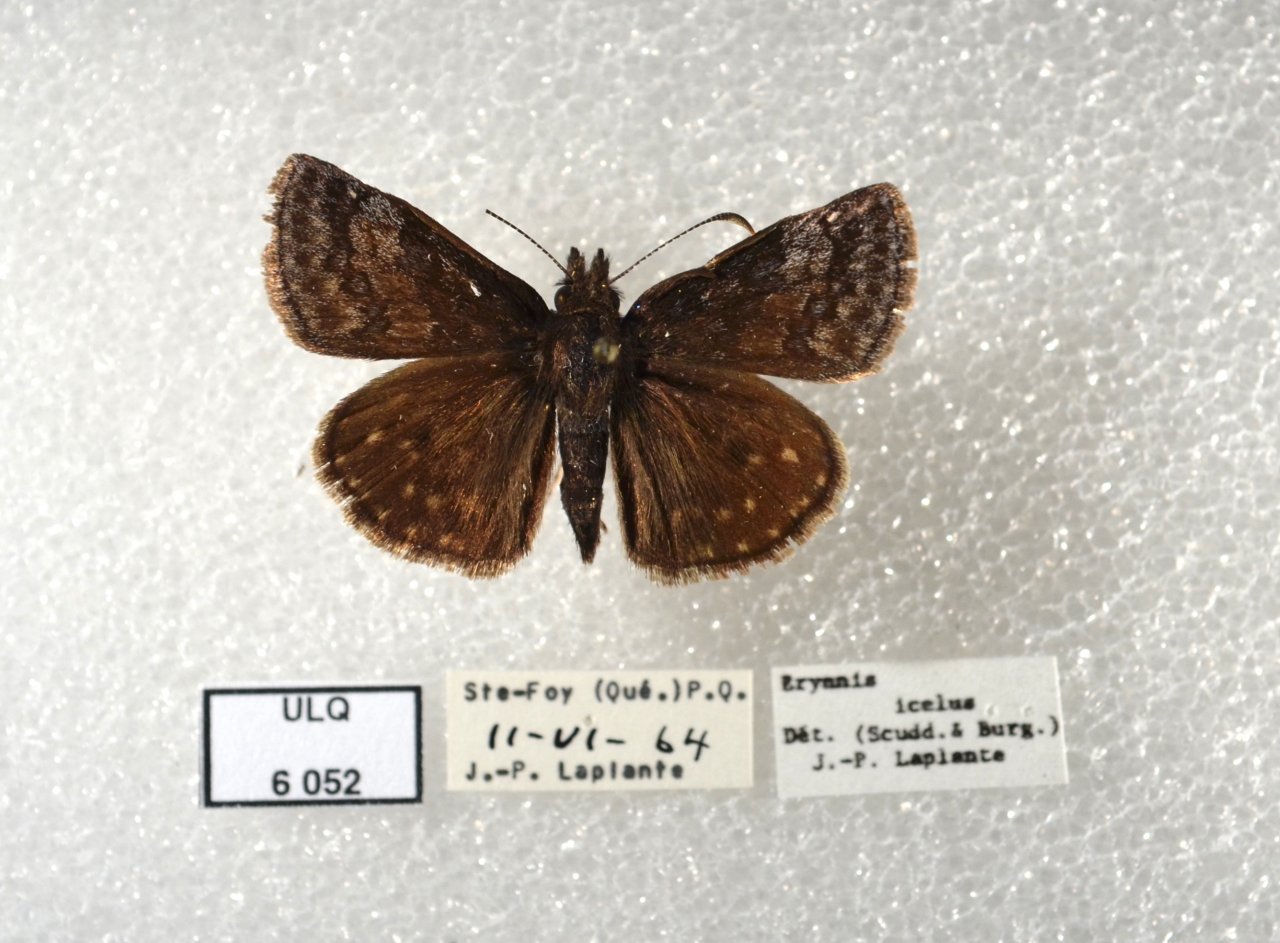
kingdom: Animalia
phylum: Arthropoda
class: Insecta
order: Lepidoptera
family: Hesperiidae
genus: Erynnis
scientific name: Erynnis icelus
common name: Dreamy Duskywing
